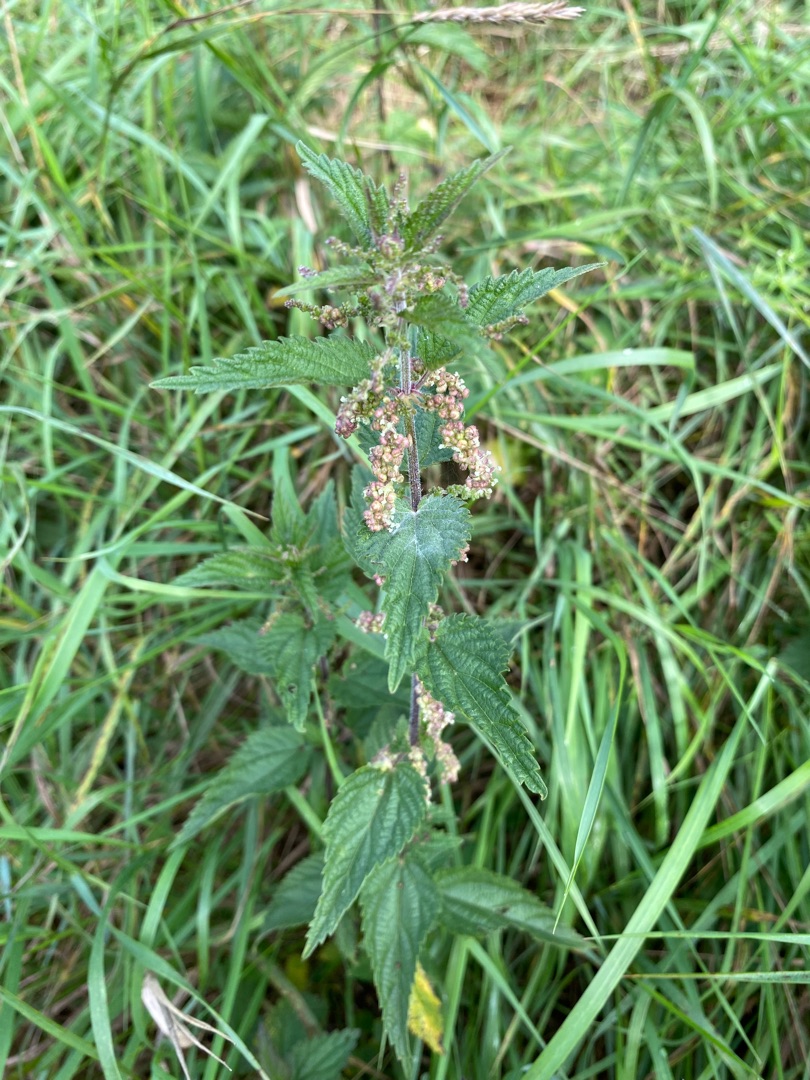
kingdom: Plantae
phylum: Tracheophyta
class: Magnoliopsida
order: Rosales
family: Urticaceae
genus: Urtica
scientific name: Urtica dioica
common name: Stor nælde
